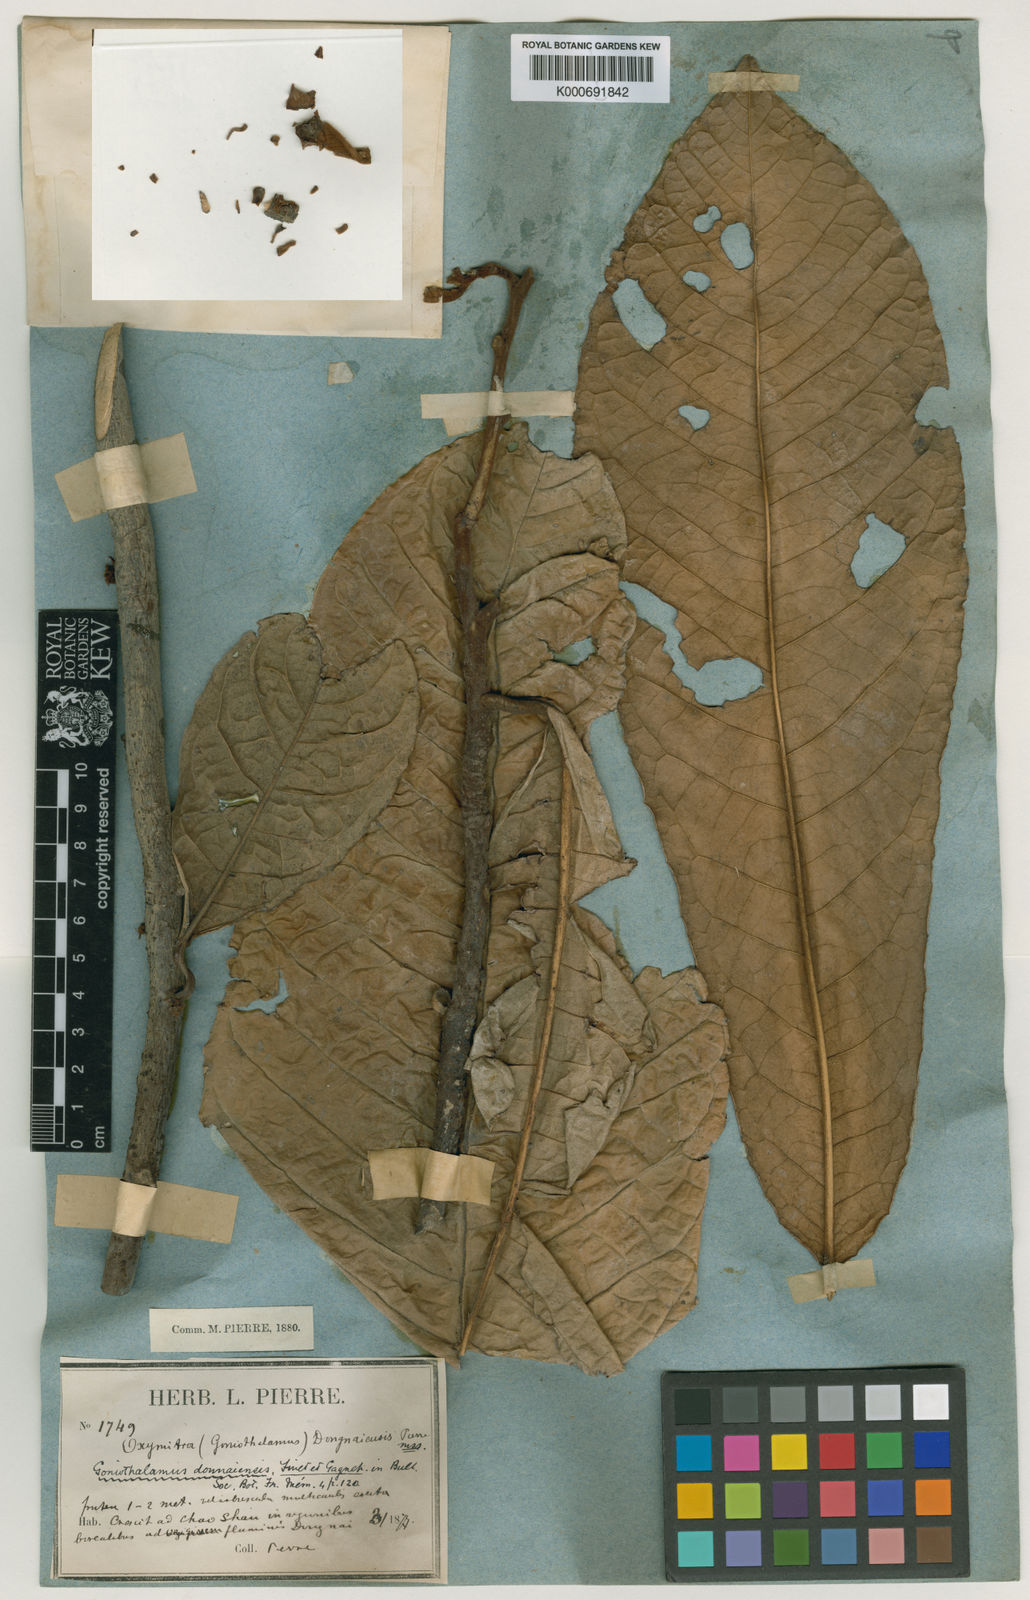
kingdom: Plantae
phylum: Tracheophyta
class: Magnoliopsida
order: Magnoliales
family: Annonaceae
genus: Goniothalamus
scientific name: Goniothalamus donnaiensis
